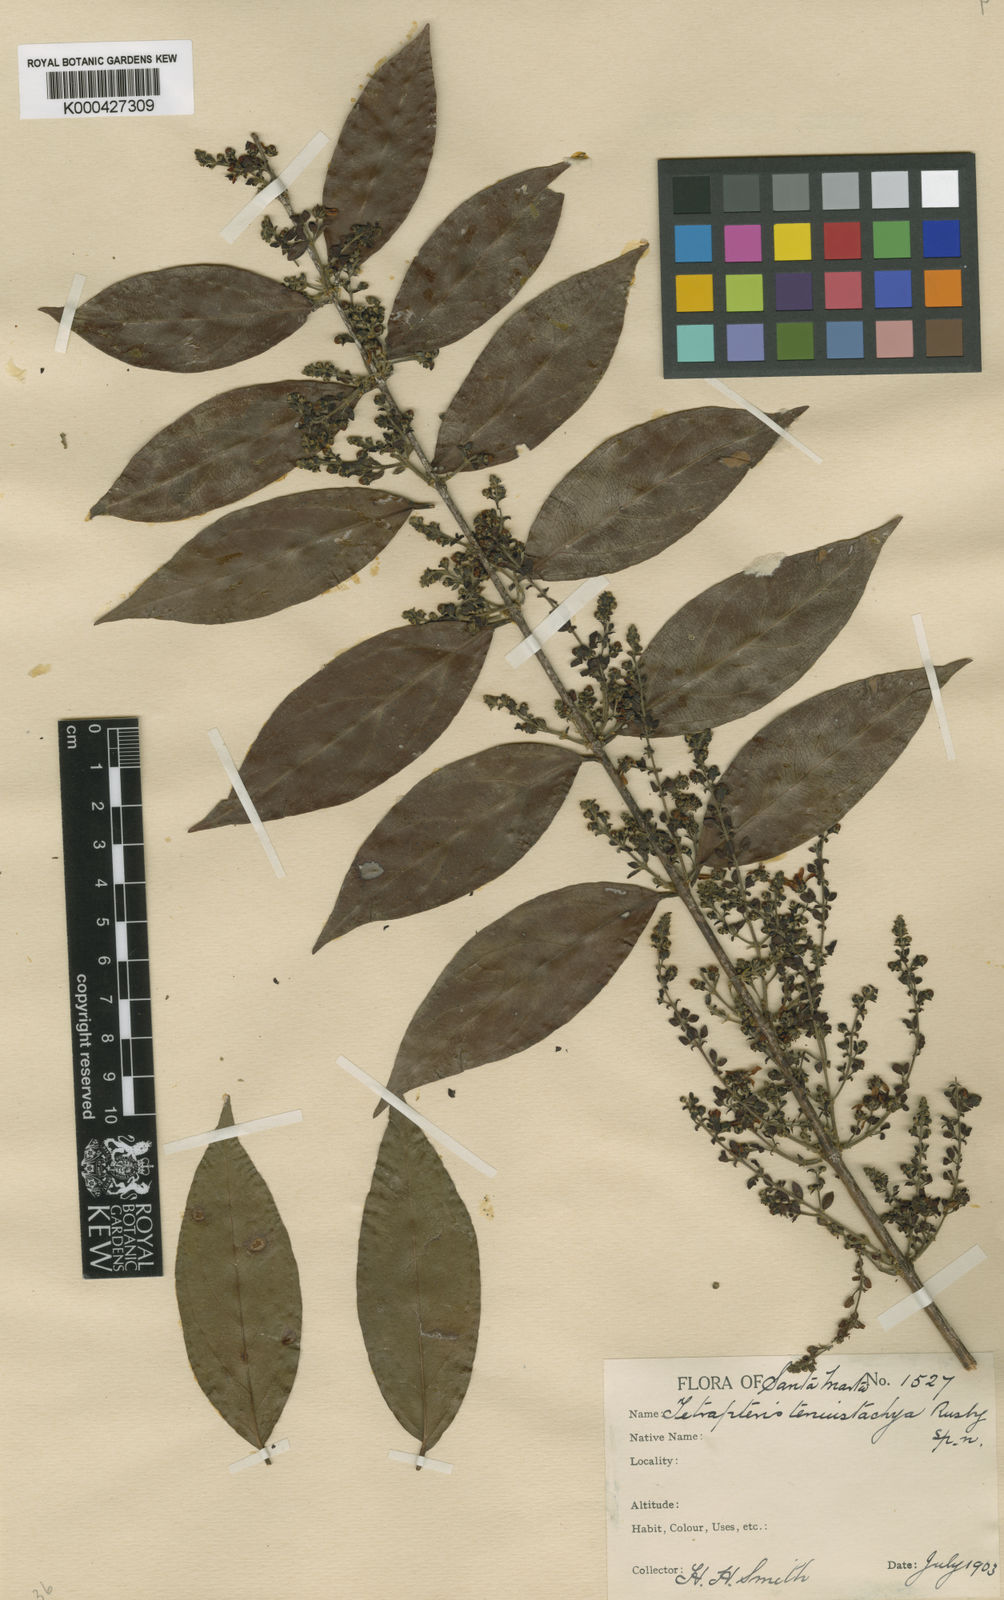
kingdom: Plantae
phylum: Tracheophyta
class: Magnoliopsida
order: Malpighiales
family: Malpighiaceae
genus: Glicophyllum
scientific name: Glicophyllum stylopterum
